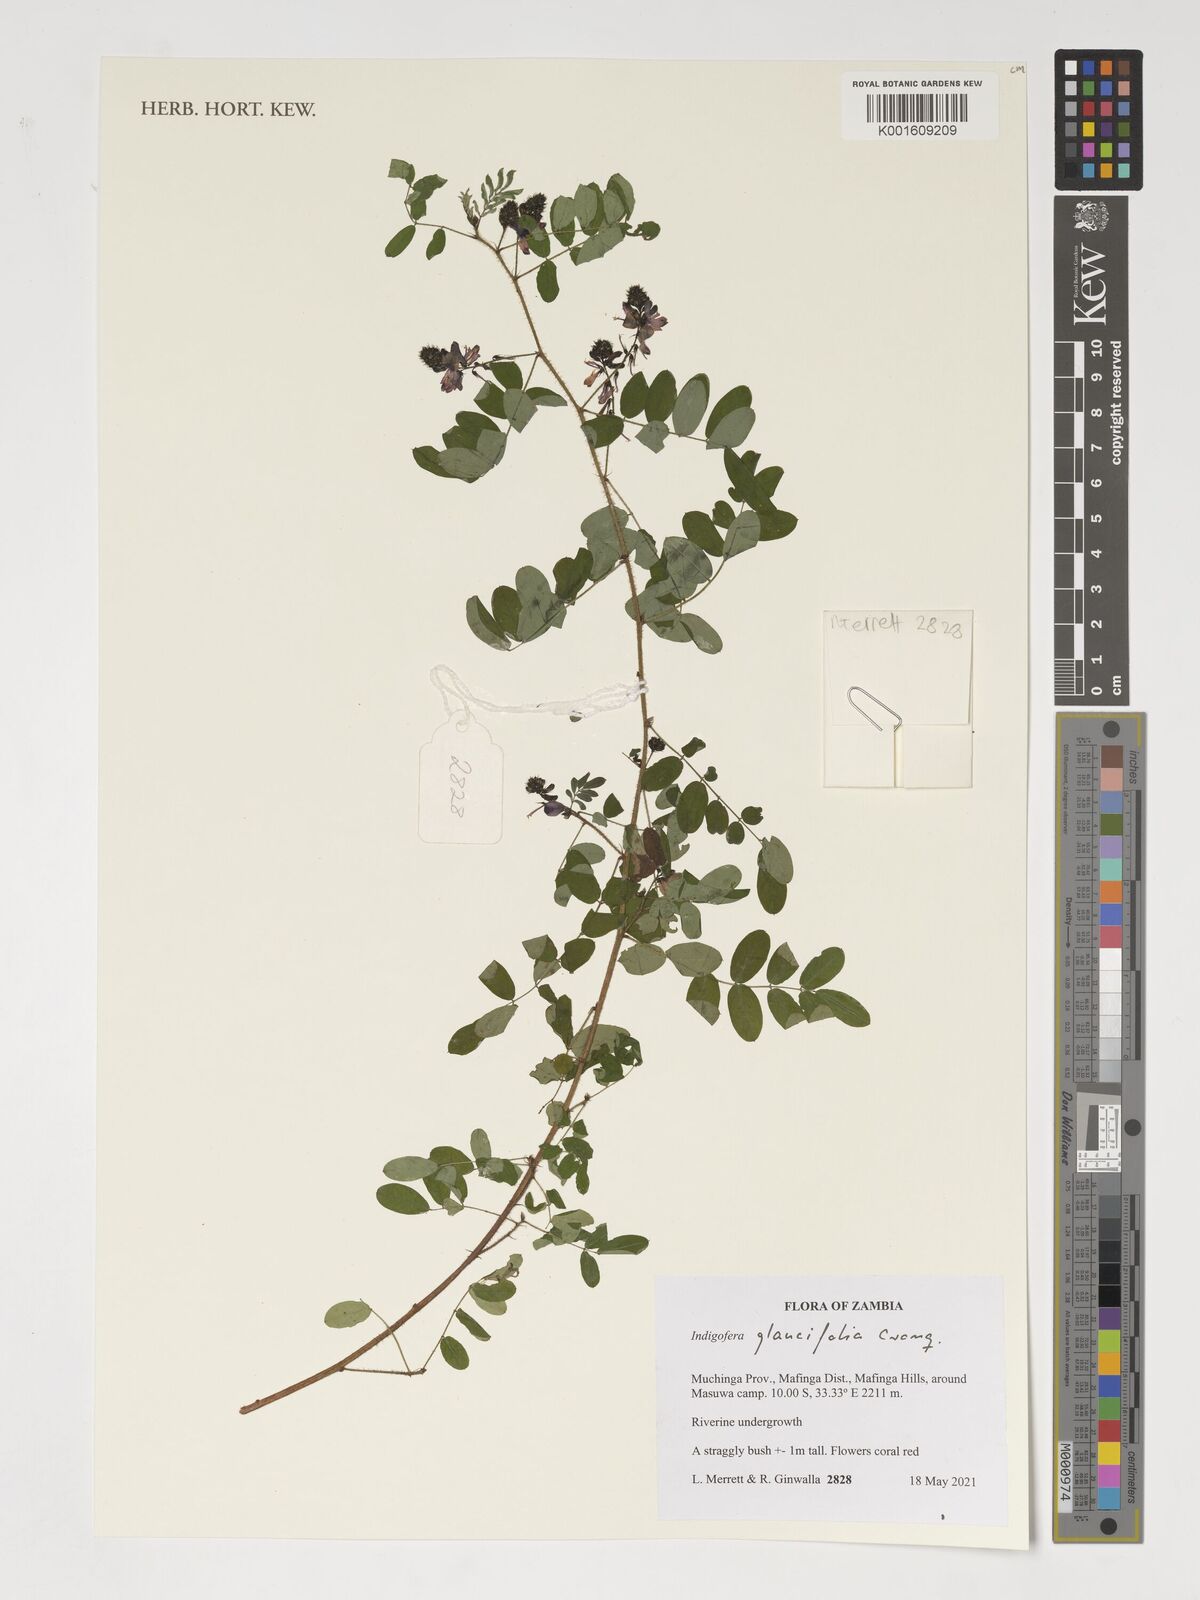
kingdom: Plantae
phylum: Tracheophyta
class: Magnoliopsida
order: Fabales
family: Fabaceae
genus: Indigofera
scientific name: Indigofera glaucifolia
